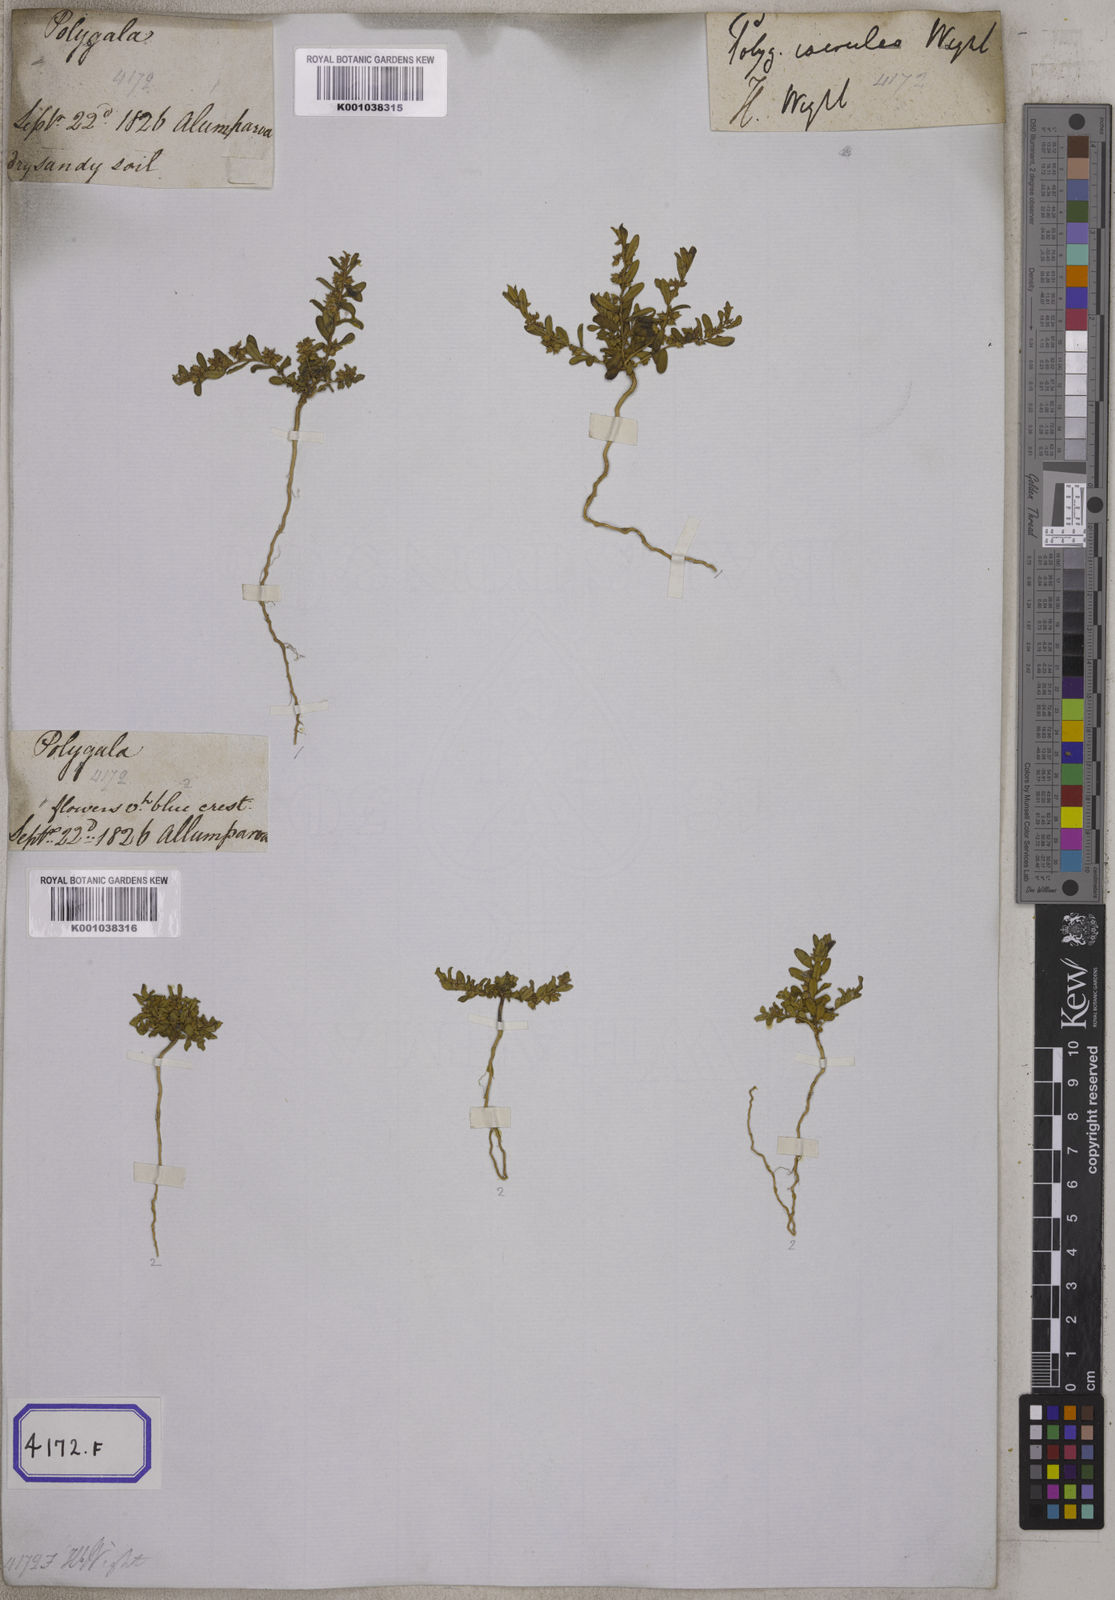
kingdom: Plantae
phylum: Tracheophyta
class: Magnoliopsida
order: Fabales
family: Polygalaceae
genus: Polygala
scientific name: Polygala
